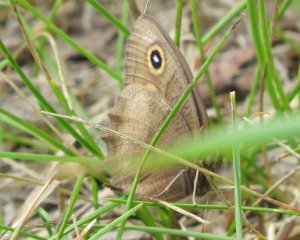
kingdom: Animalia
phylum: Arthropoda
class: Insecta
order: Lepidoptera
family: Nymphalidae
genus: Cercyonis
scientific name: Cercyonis pegala
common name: Common Wood-Nymph
